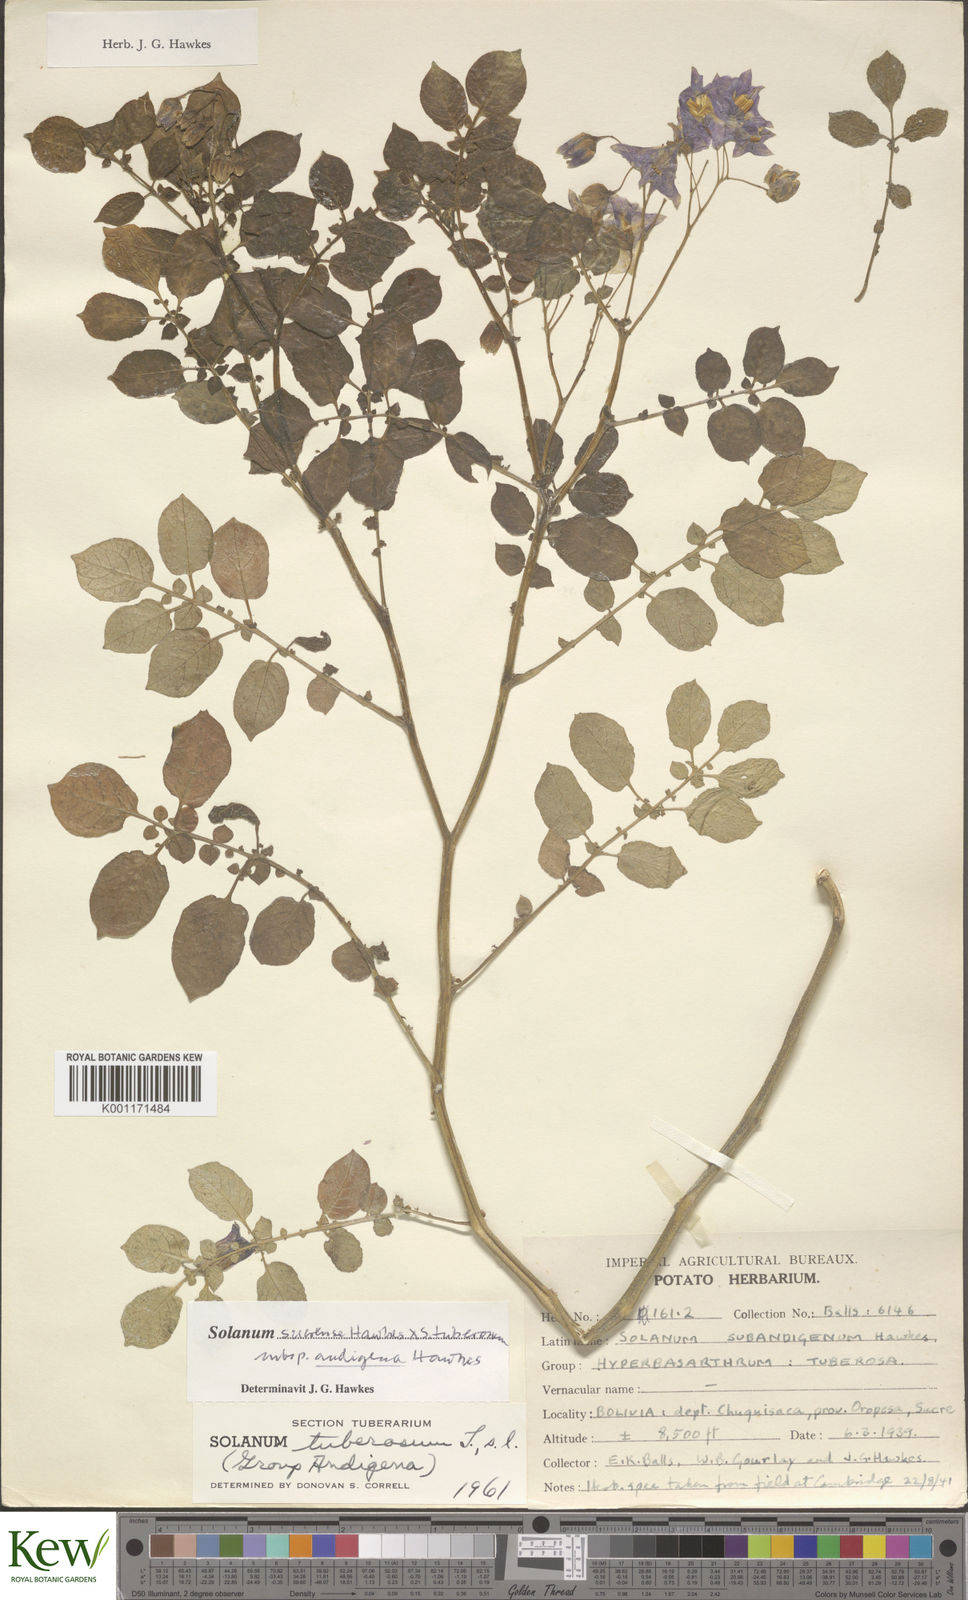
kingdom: Plantae
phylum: Tracheophyta
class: Magnoliopsida
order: Solanales
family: Solanaceae
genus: Solanum
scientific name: Solanum tuberosum
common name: Potato
